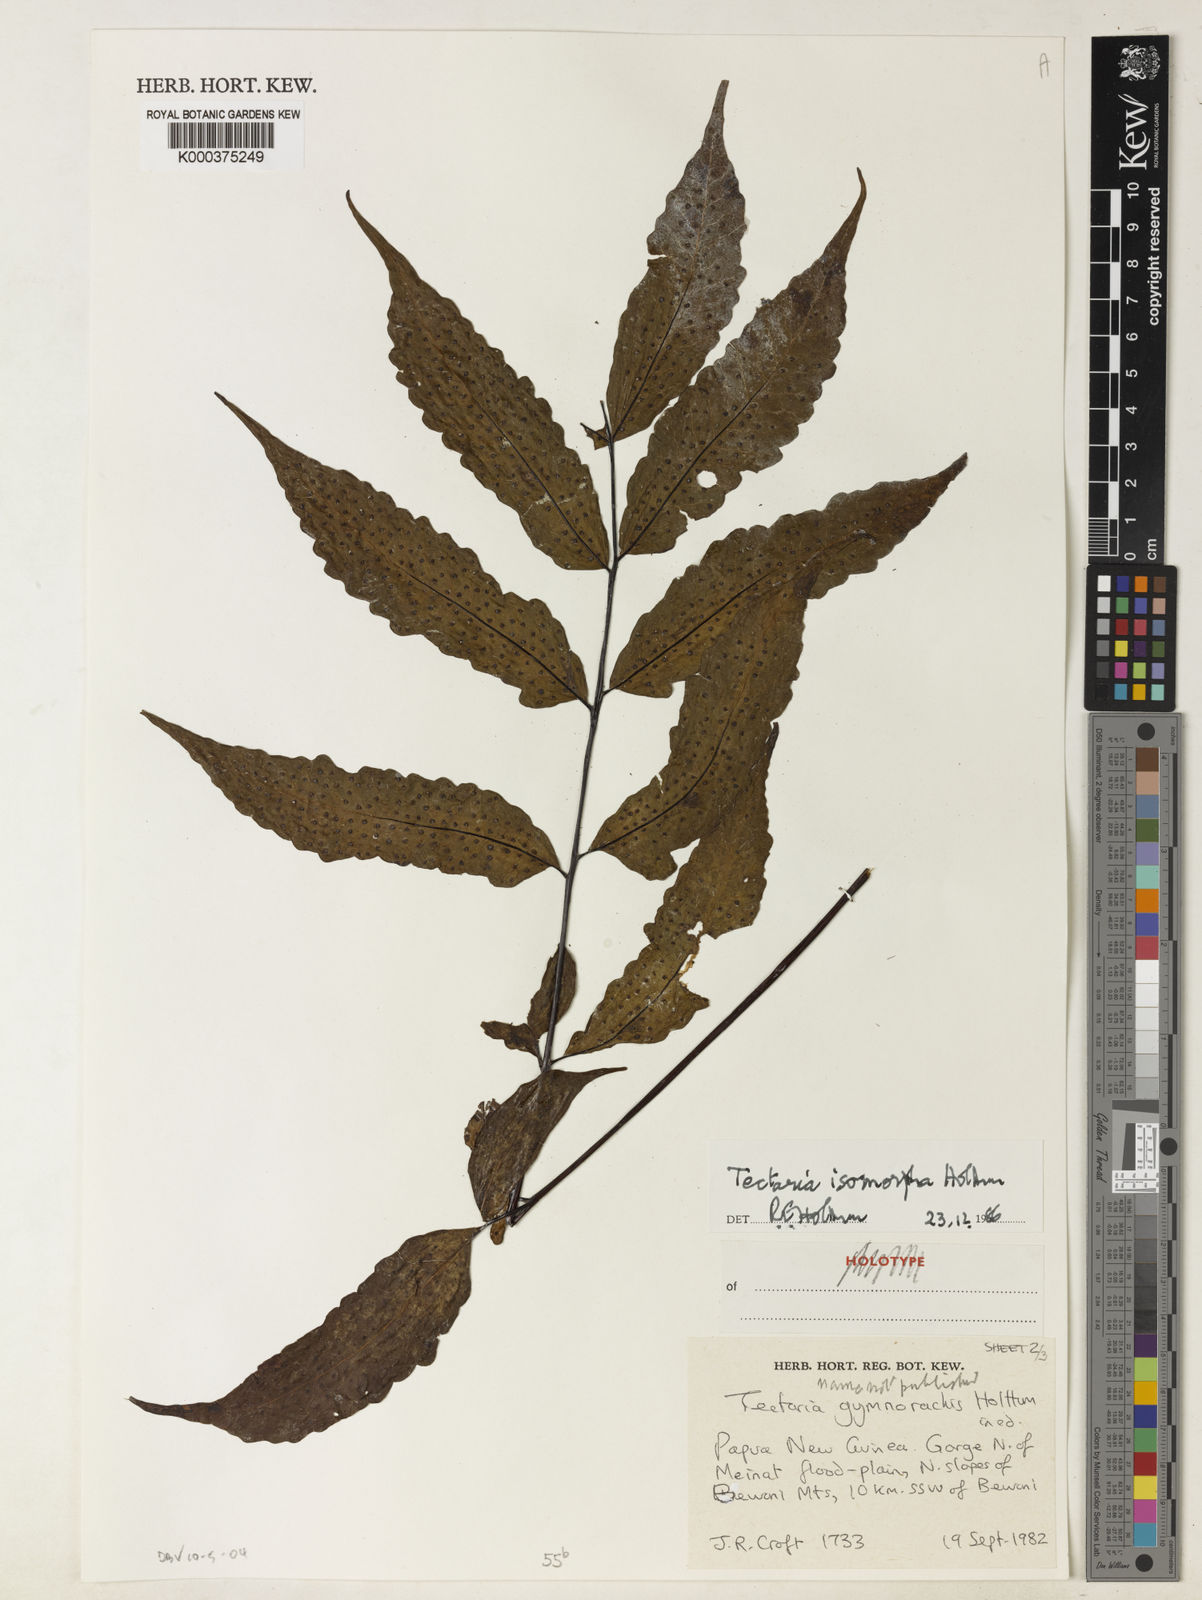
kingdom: Plantae
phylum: Tracheophyta
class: Polypodiopsida
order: Polypodiales
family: Tectariaceae
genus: Tectaria
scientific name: Tectaria isomorpha
